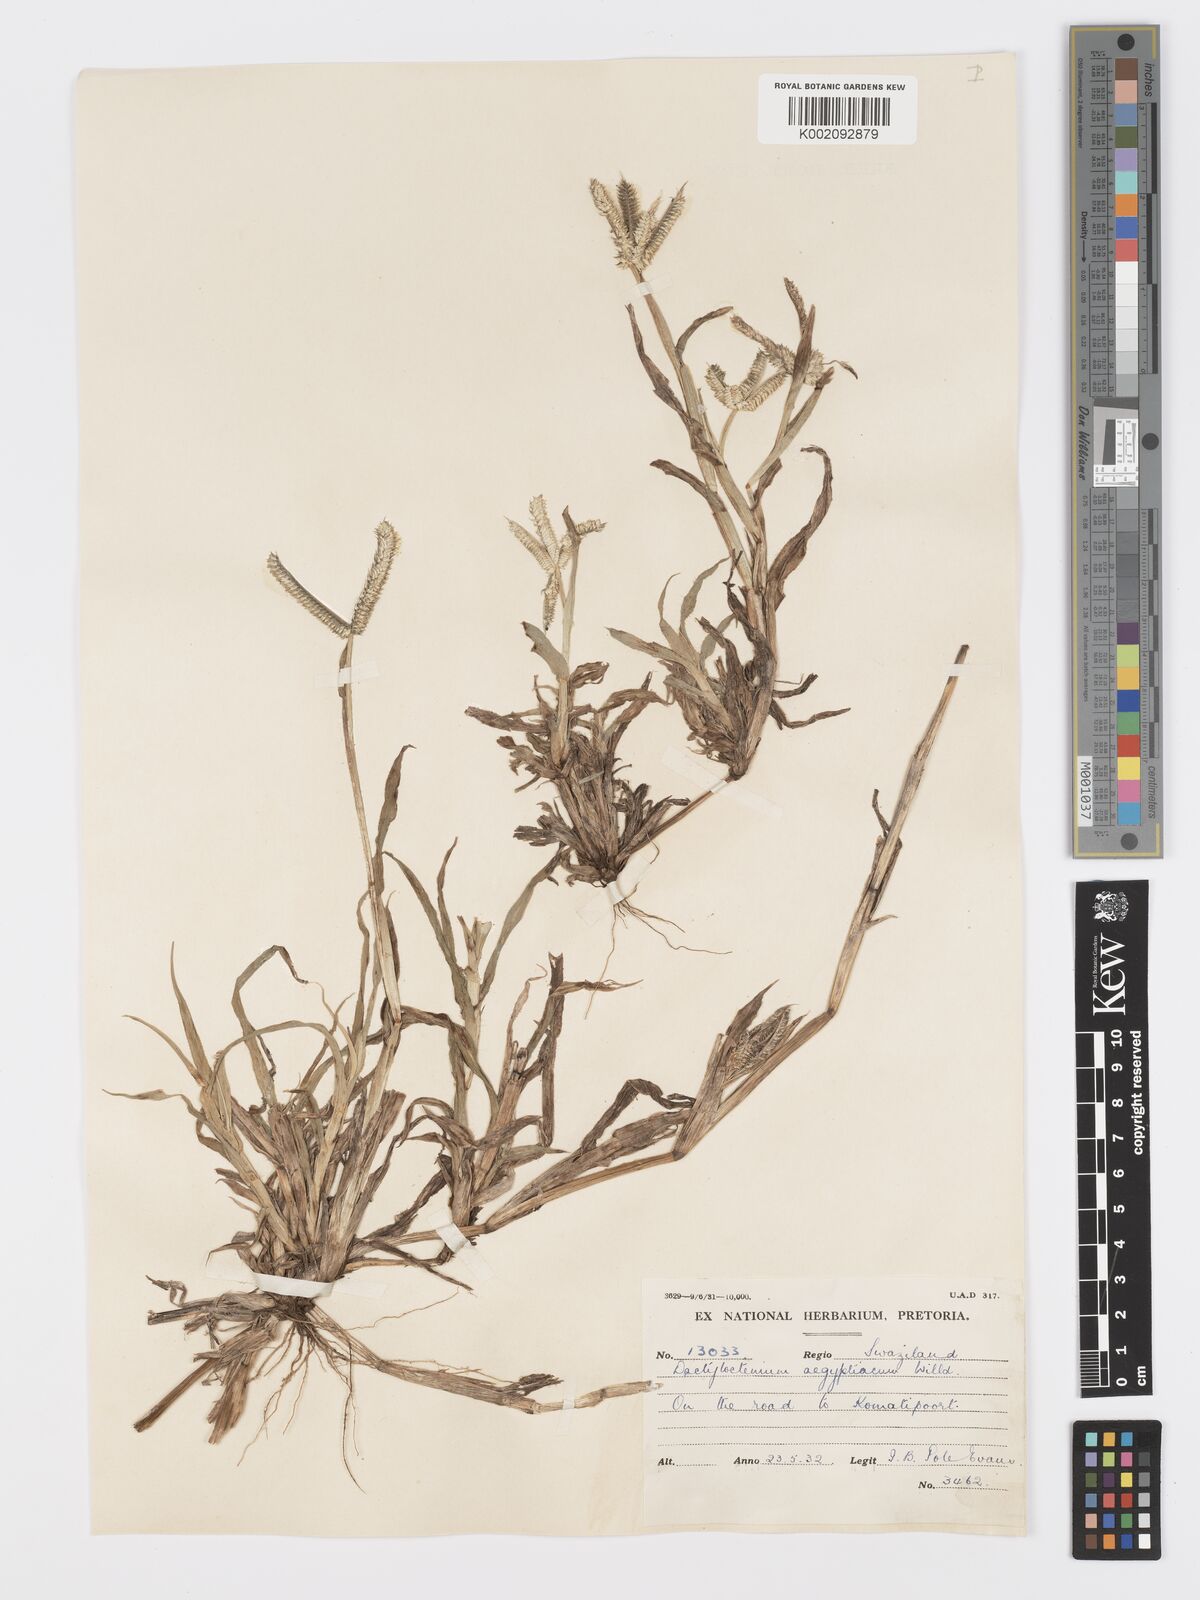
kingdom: Plantae
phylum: Tracheophyta
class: Liliopsida
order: Poales
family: Poaceae
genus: Dactyloctenium
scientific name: Dactyloctenium aegyptium
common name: Egyptian grass
